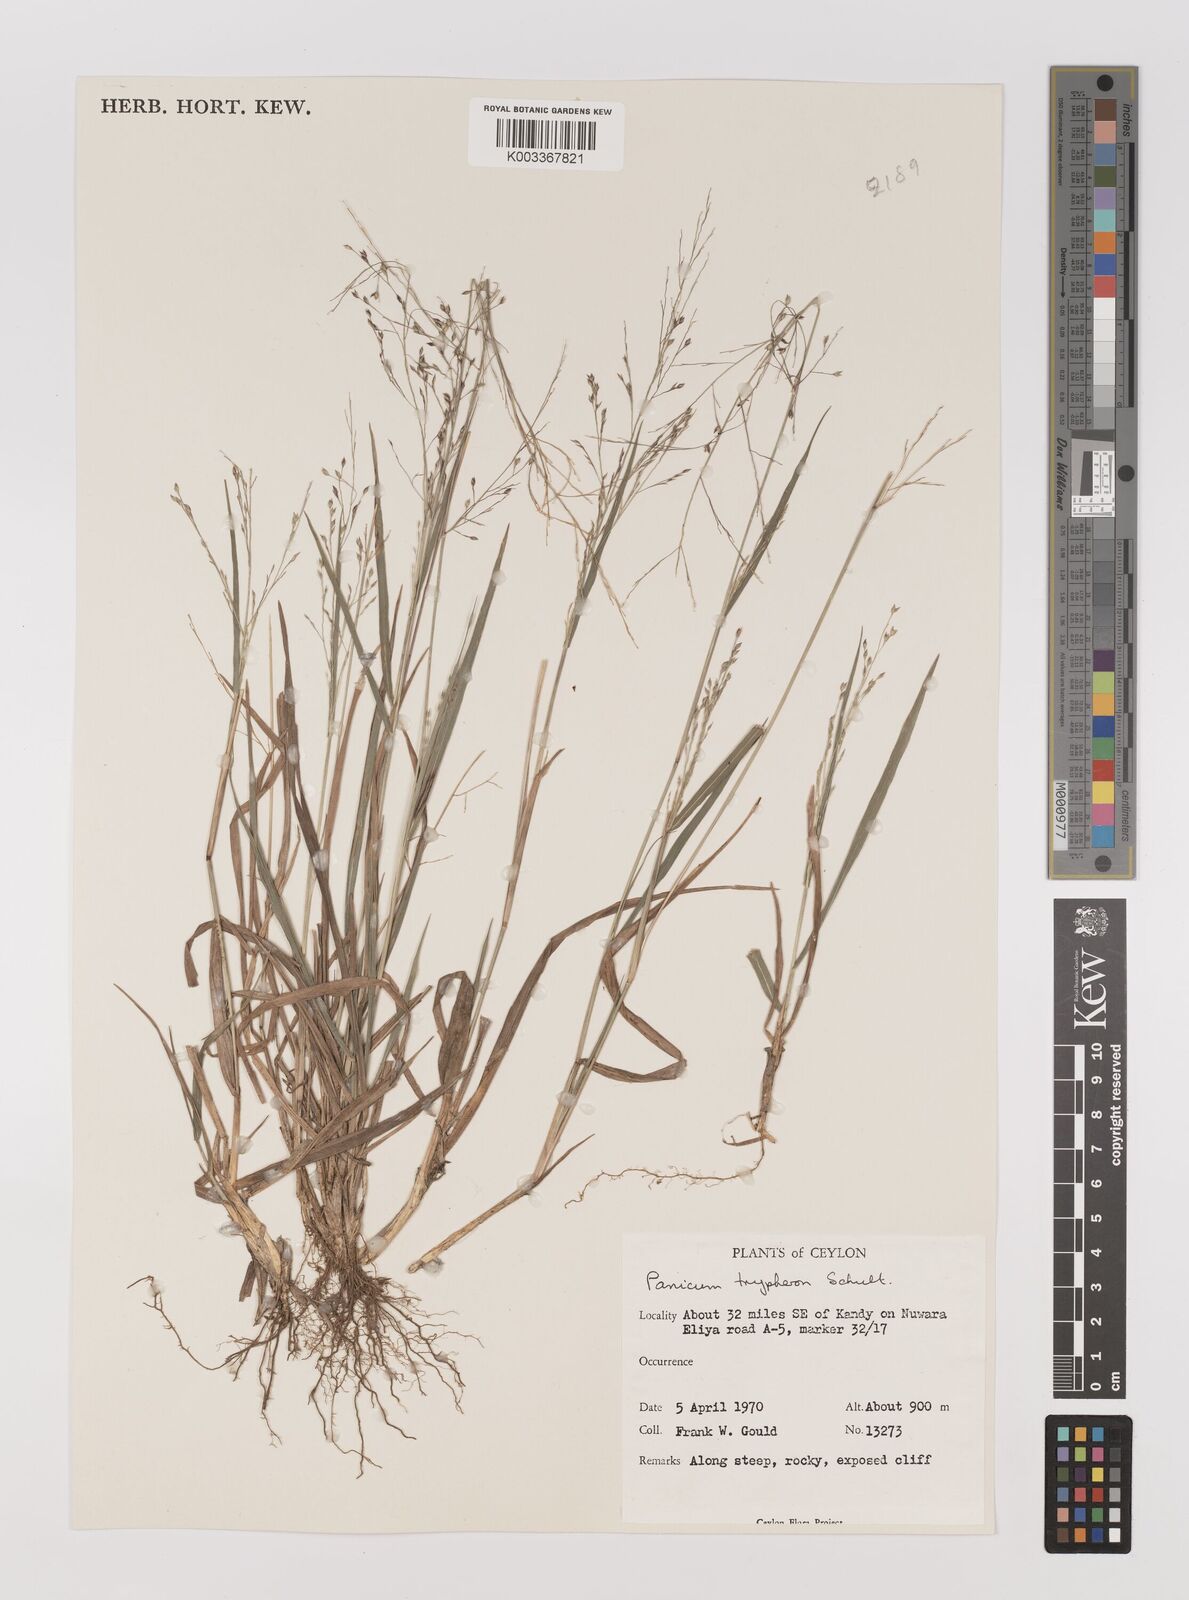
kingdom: Plantae
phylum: Tracheophyta
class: Liliopsida
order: Poales
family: Poaceae
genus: Panicum
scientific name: Panicum curviflorum
